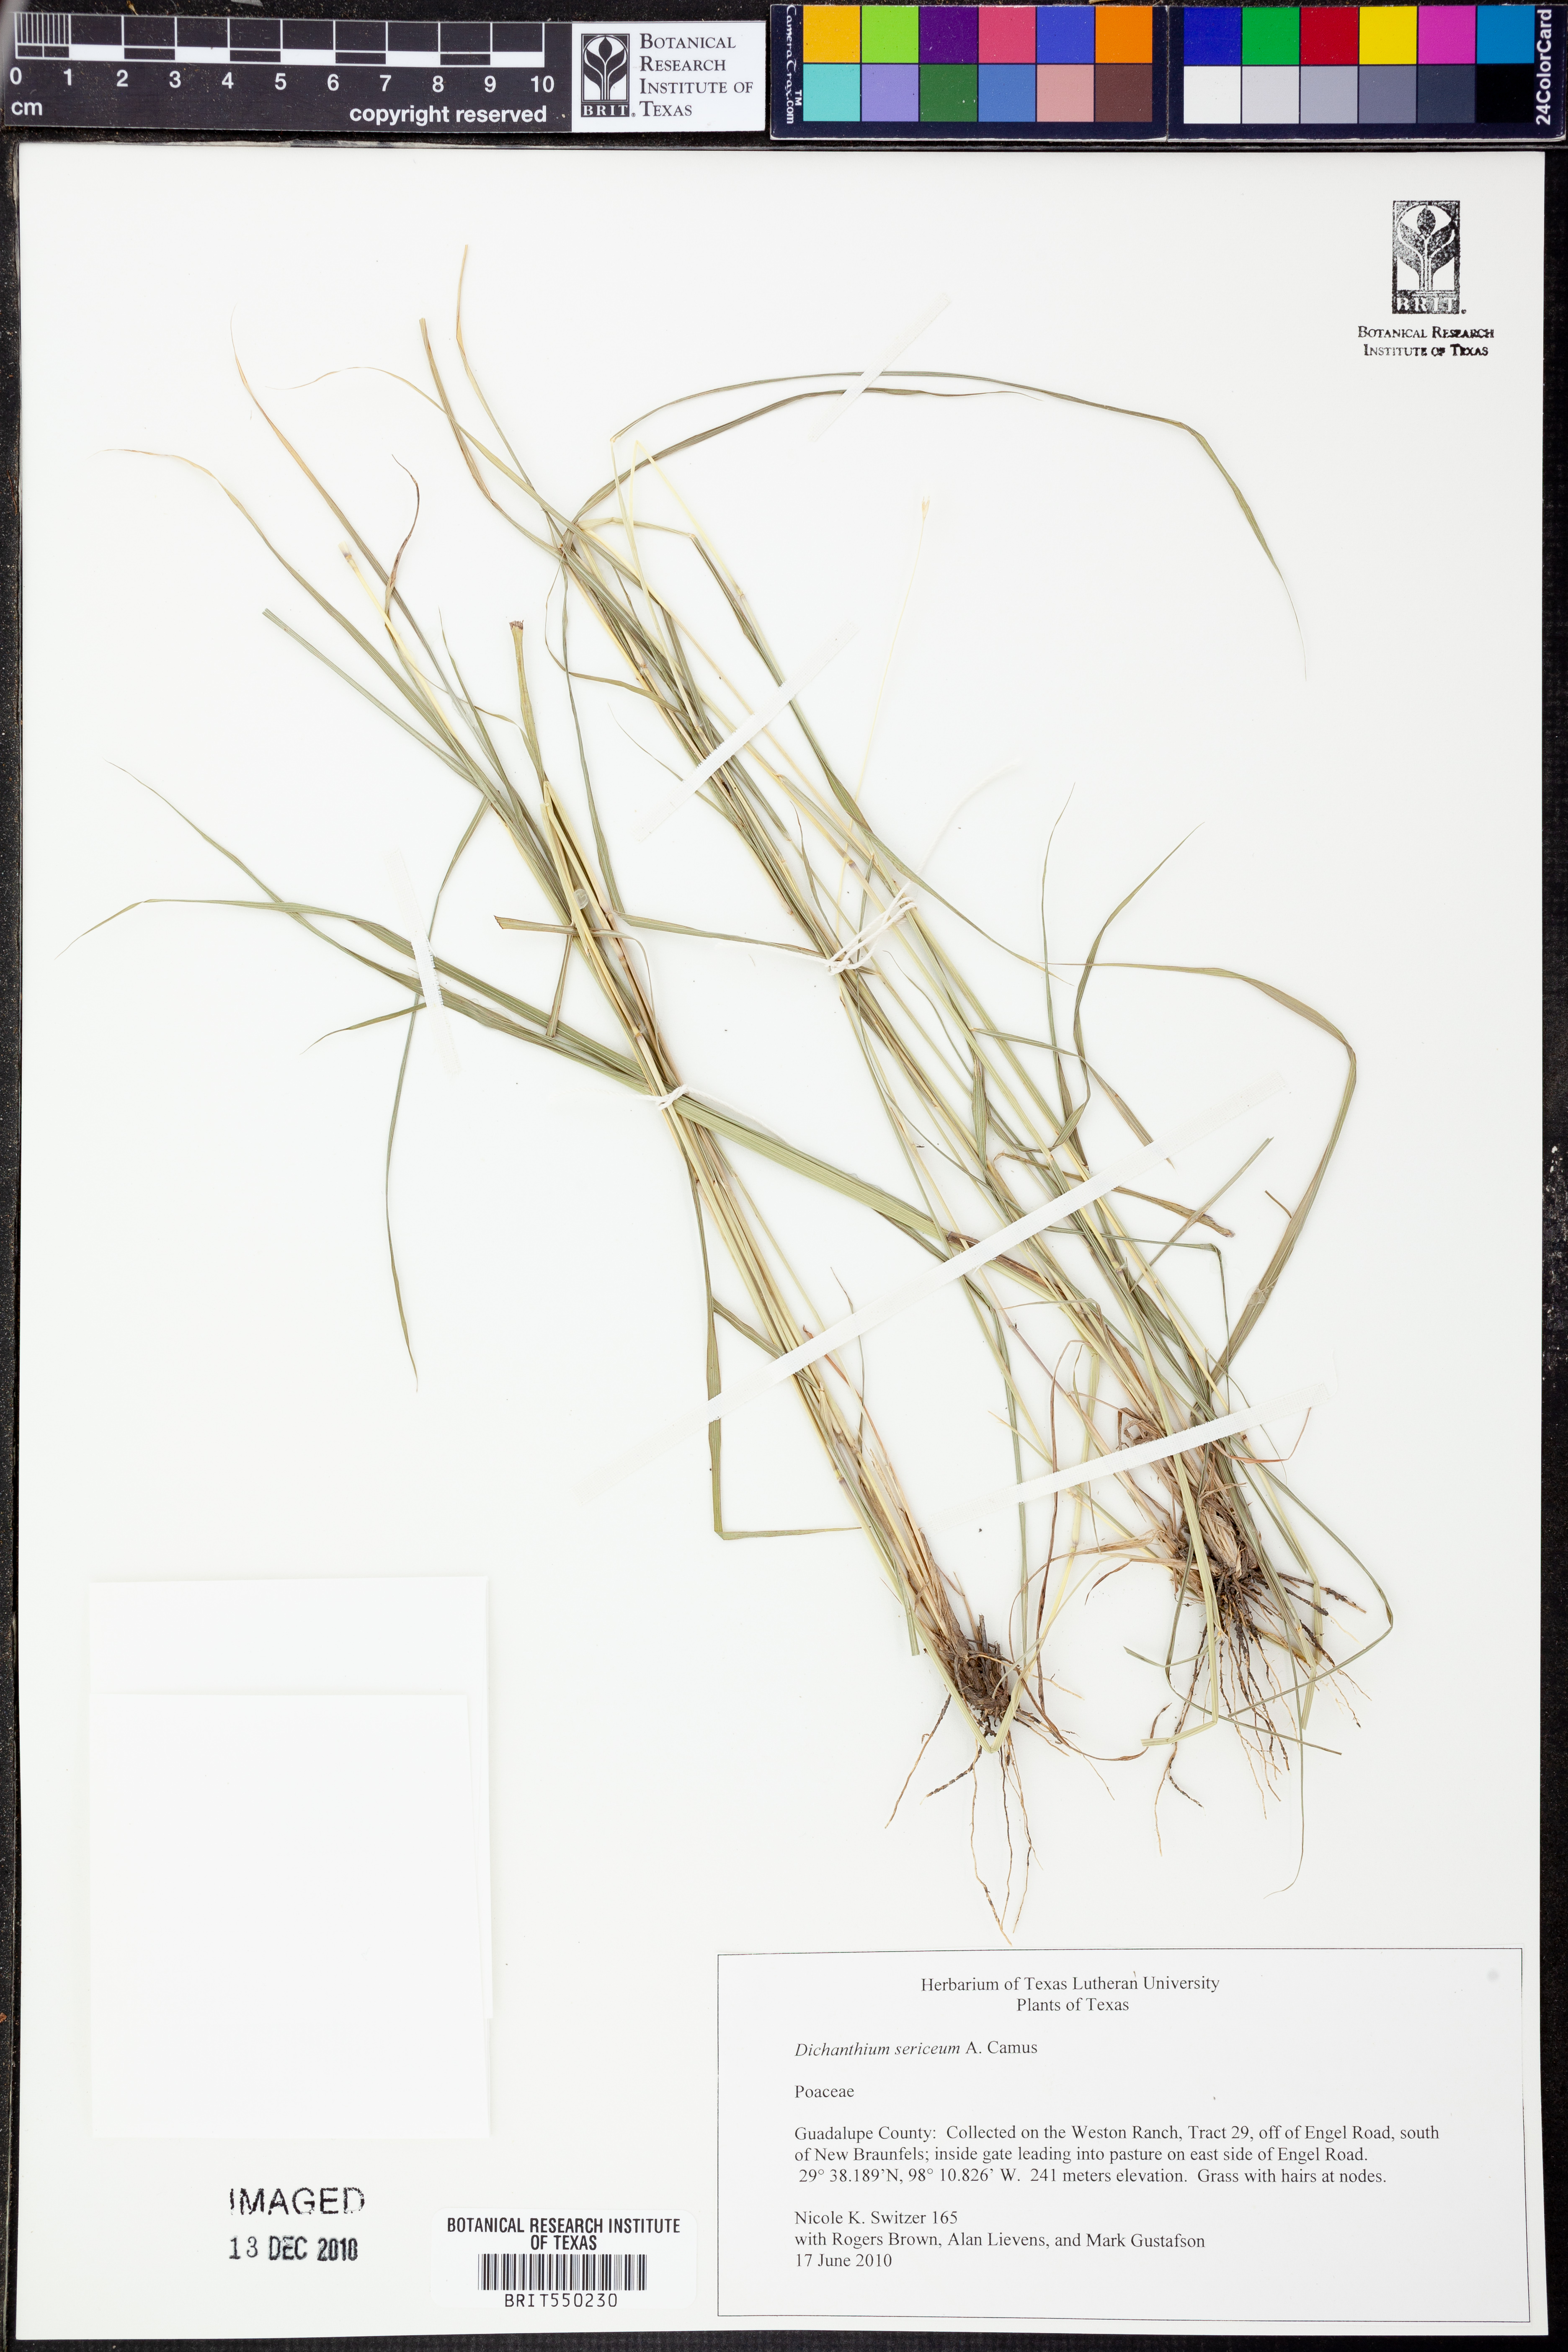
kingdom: Plantae
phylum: Tracheophyta
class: Liliopsida
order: Poales
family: Poaceae
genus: Dichanthium
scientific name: Dichanthium sericeum
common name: Silky bluestem
